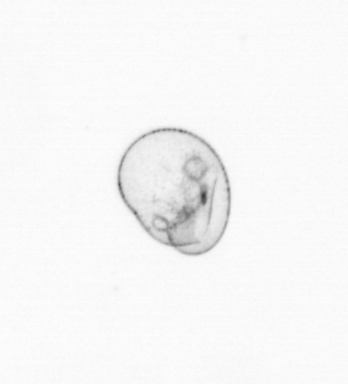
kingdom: Chromista
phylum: Myzozoa
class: Dinophyceae
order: Noctilucales
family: Noctilucaceae
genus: Noctiluca
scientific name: Noctiluca scintillans
